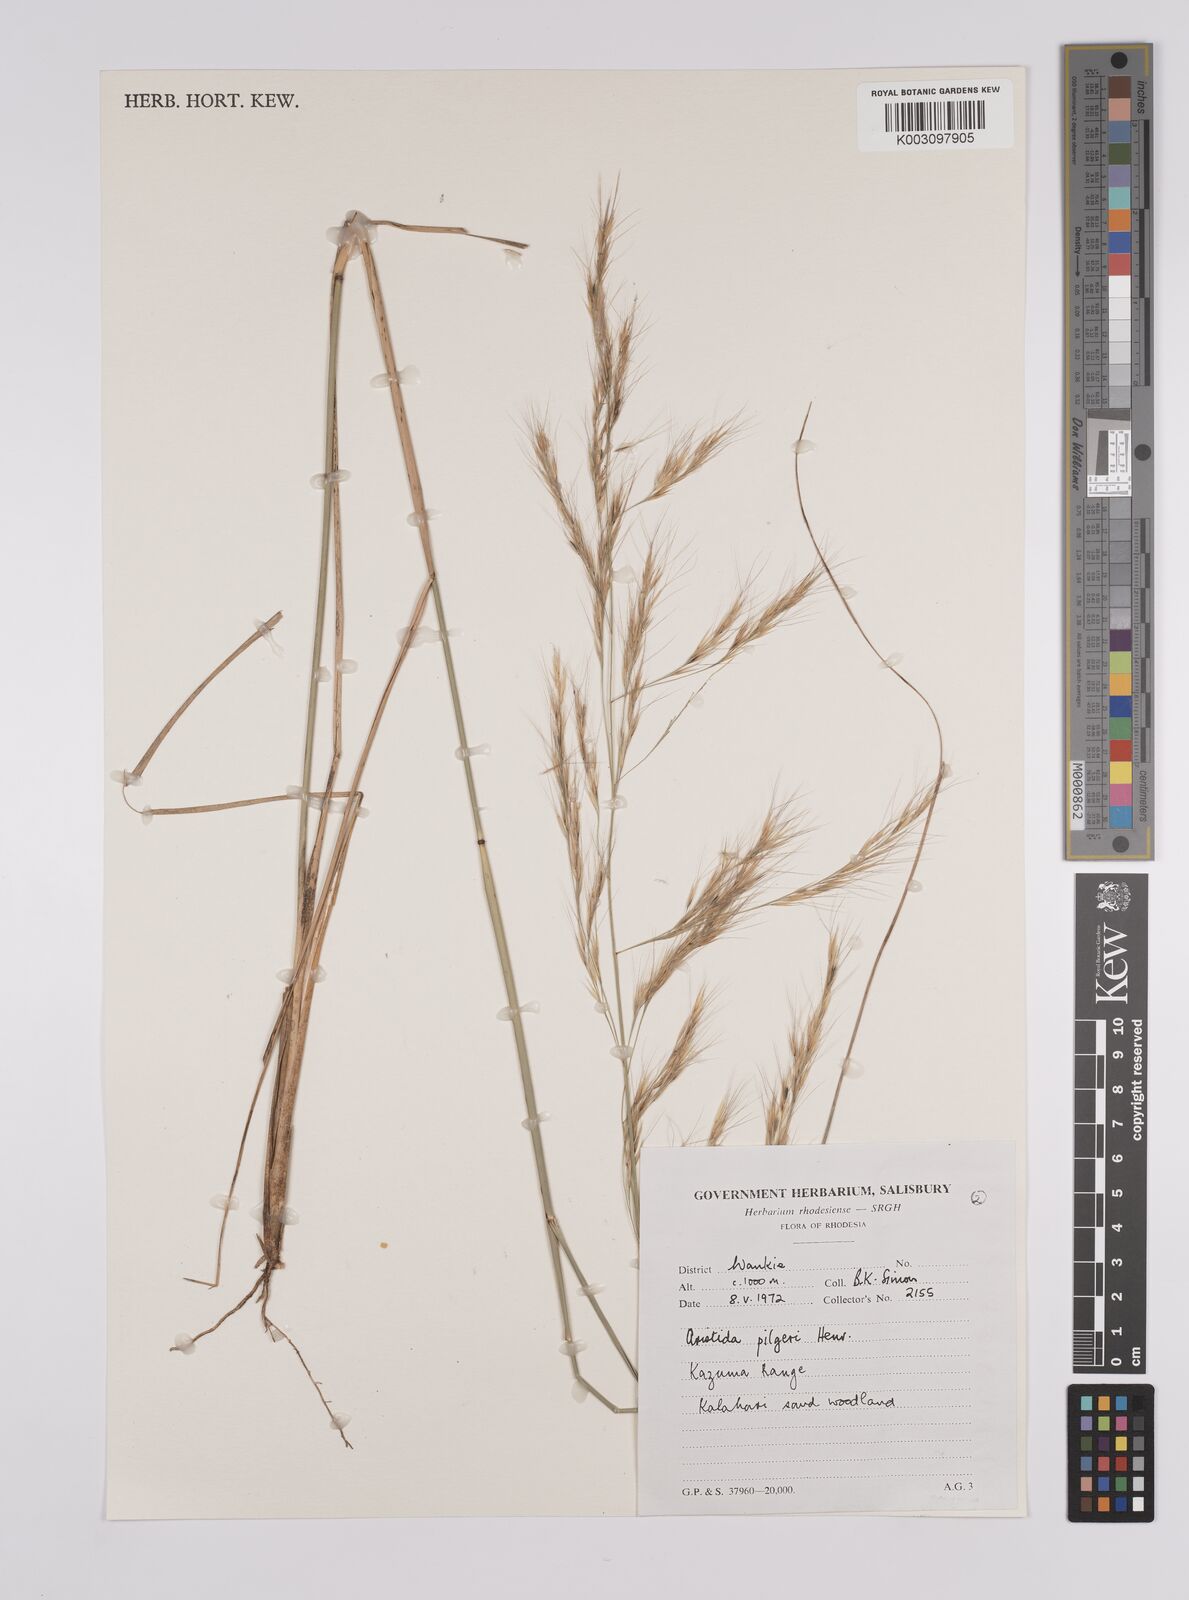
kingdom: Plantae
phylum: Tracheophyta
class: Liliopsida
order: Poales
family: Poaceae
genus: Aristida
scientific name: Aristida pilgeri
